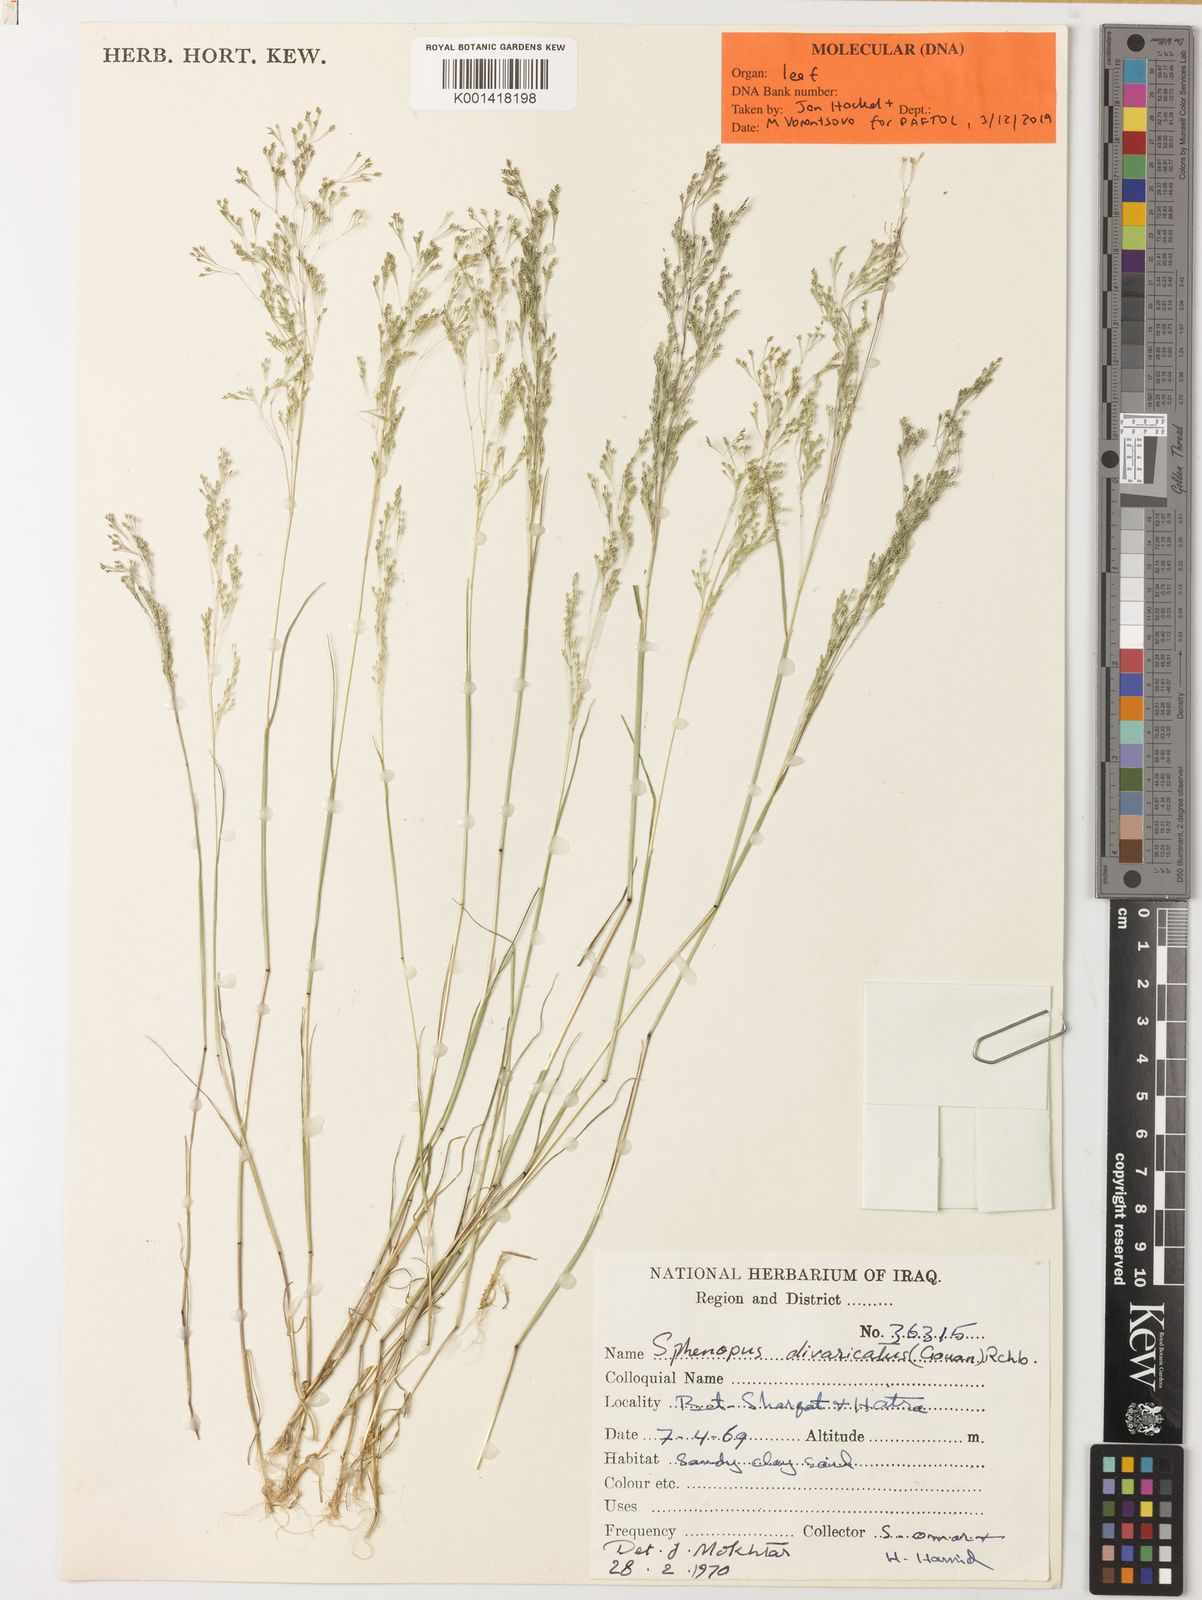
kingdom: Plantae
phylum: Tracheophyta
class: Liliopsida
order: Poales
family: Poaceae
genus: Sphenopus
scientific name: Sphenopus divaricatus
